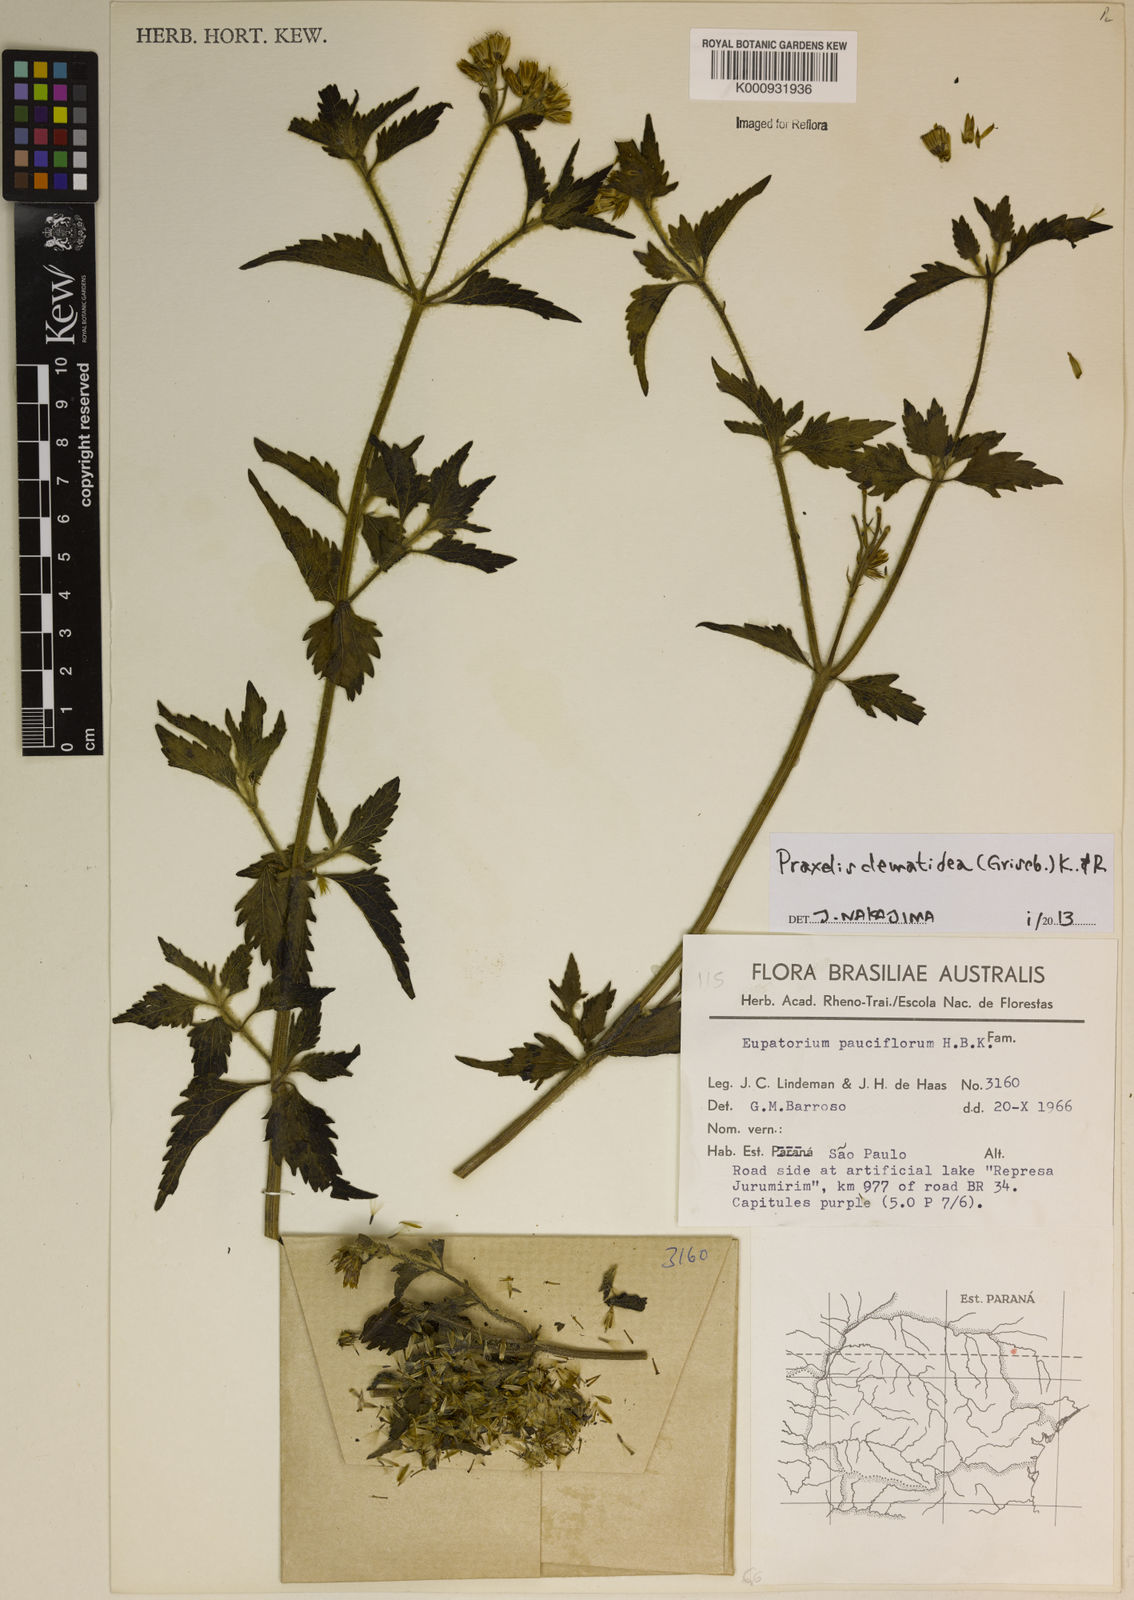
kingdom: Plantae
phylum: Tracheophyta
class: Magnoliopsida
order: Asterales
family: Asteraceae
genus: Praxelis
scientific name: Praxelis clematidea
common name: Praxelis
